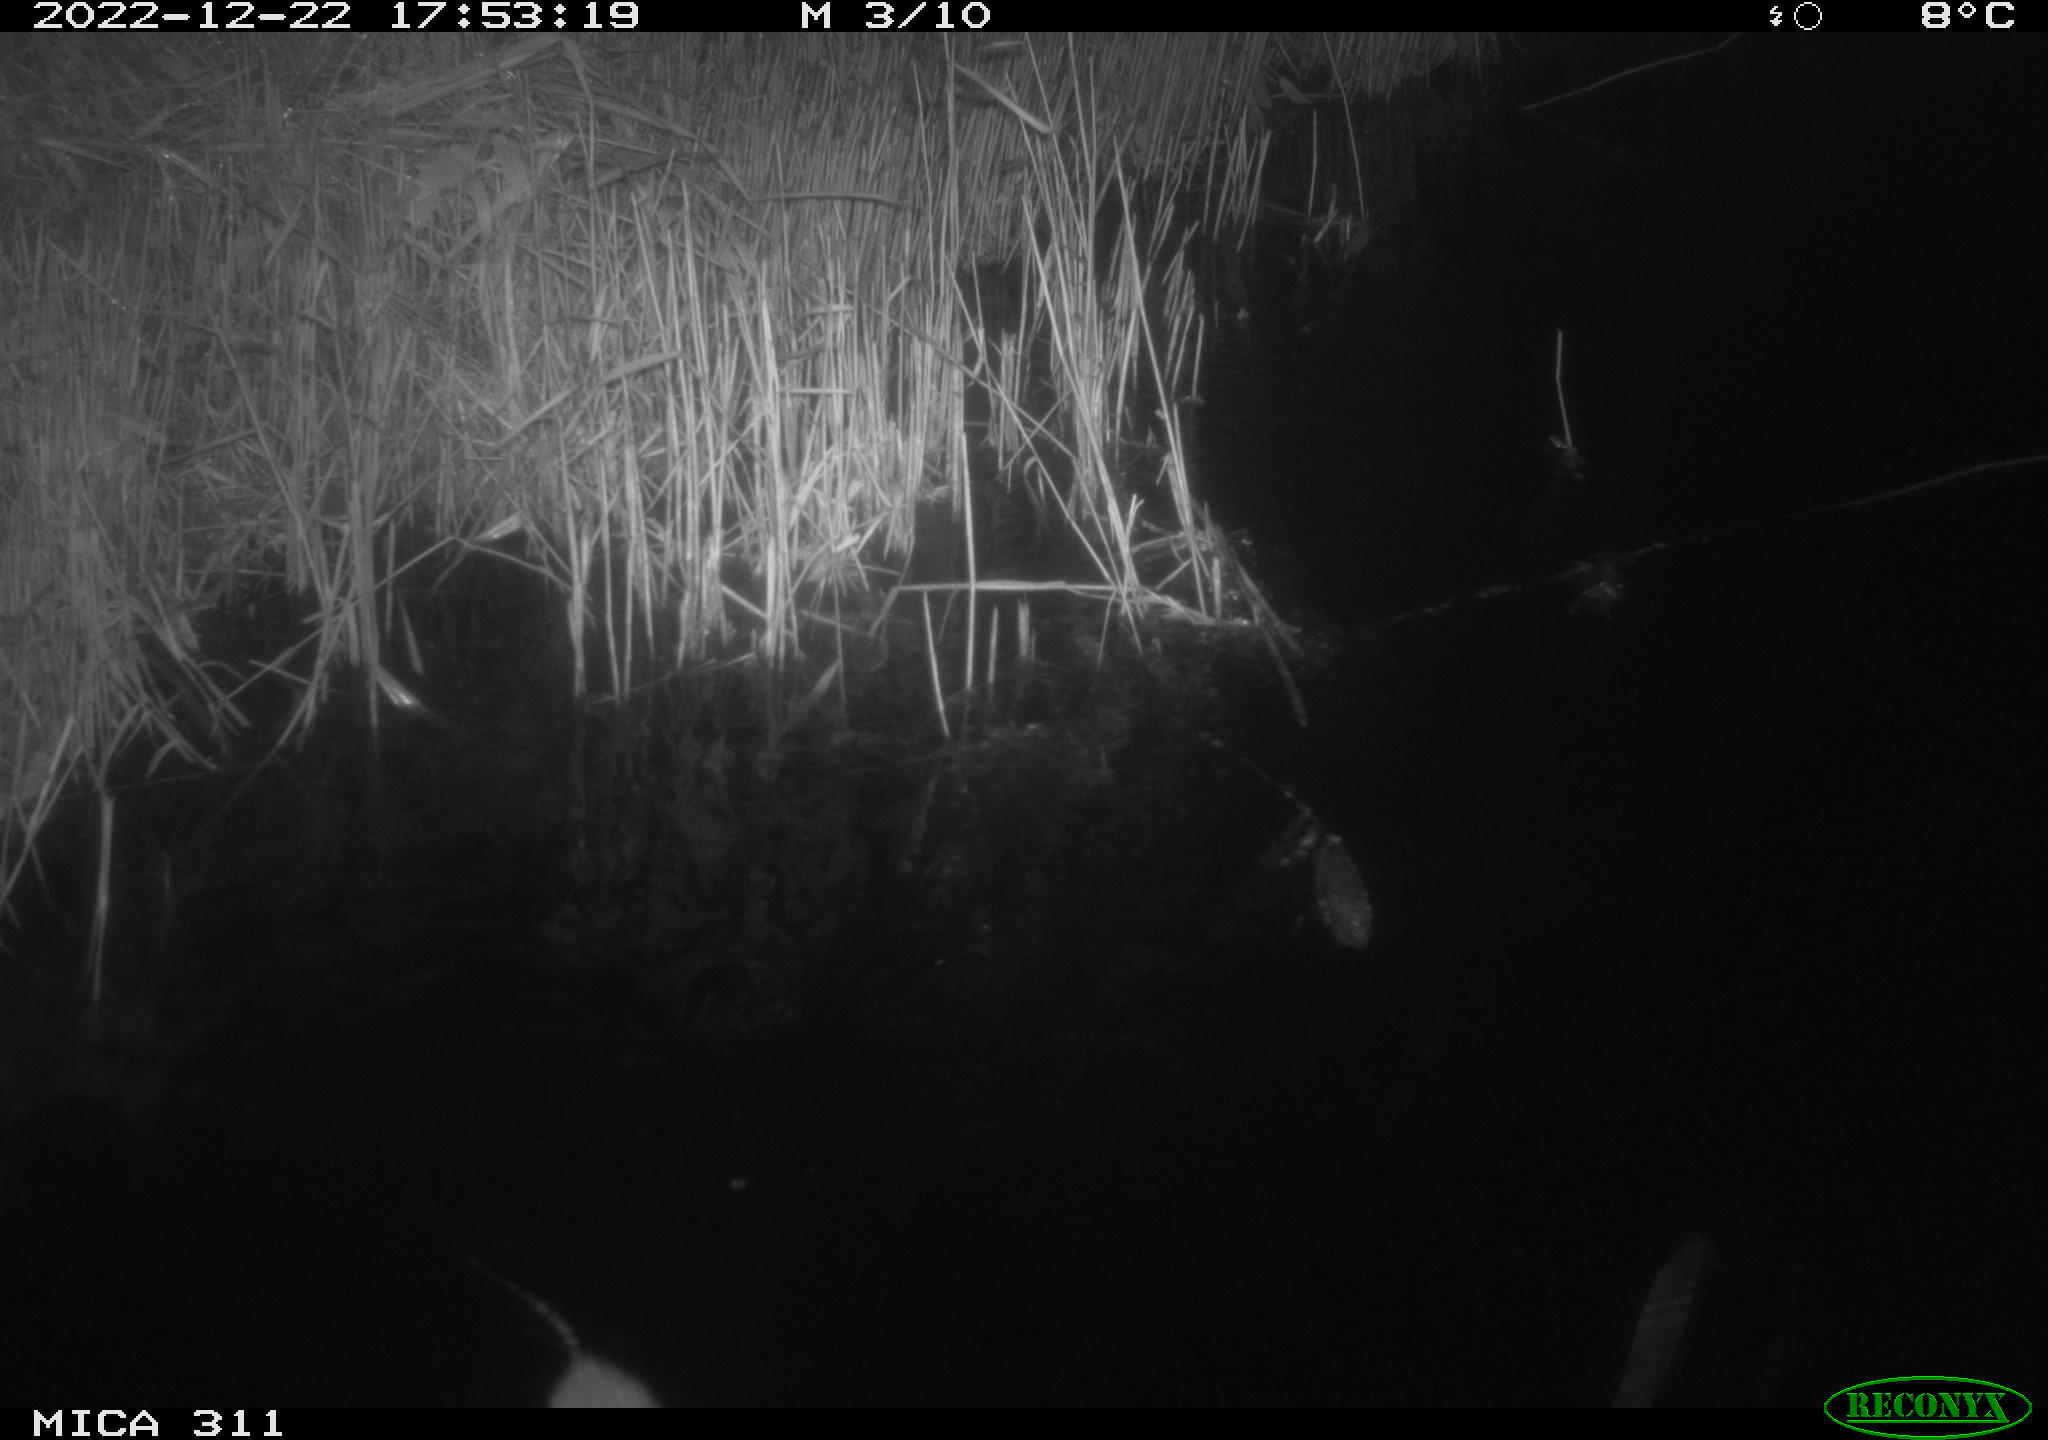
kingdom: Animalia
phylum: Chordata
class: Mammalia
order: Rodentia
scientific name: Rodentia
